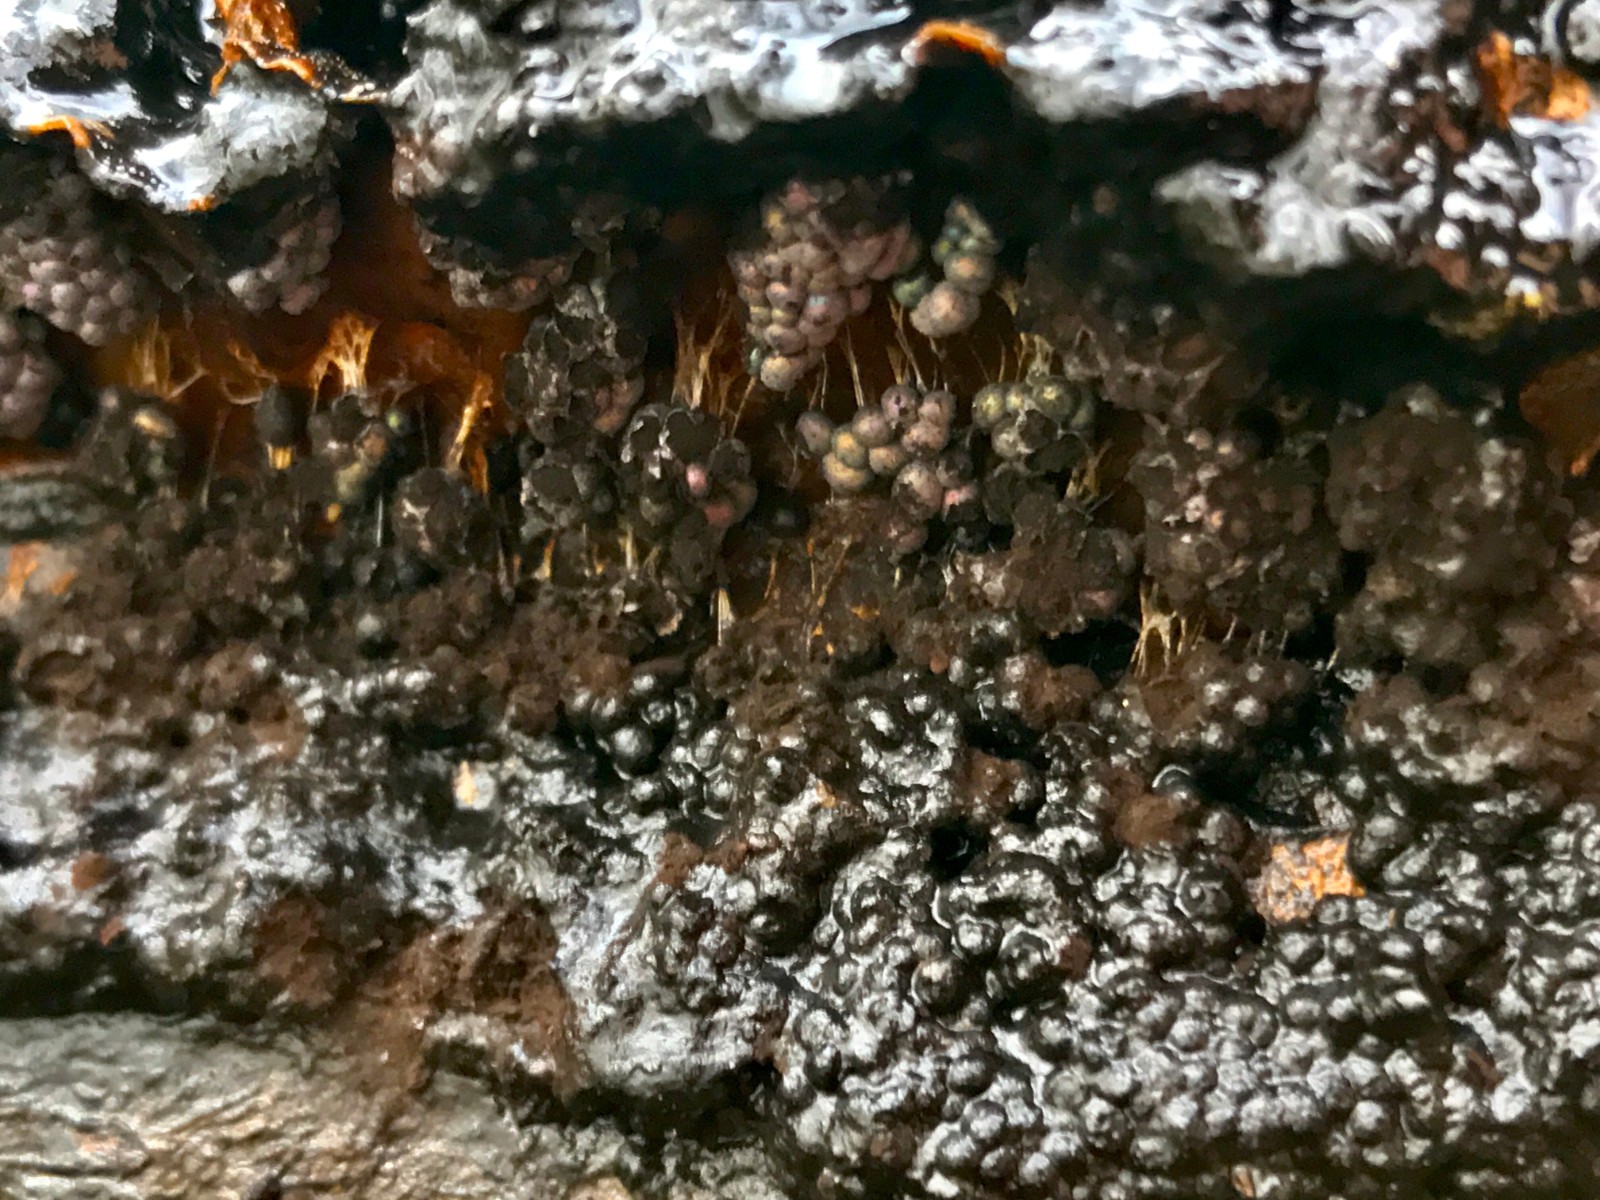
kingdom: Protozoa
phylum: Mycetozoa
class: Myxomycetes
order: Physarales
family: Physaraceae
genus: Badhamia
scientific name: Badhamia utricularis
